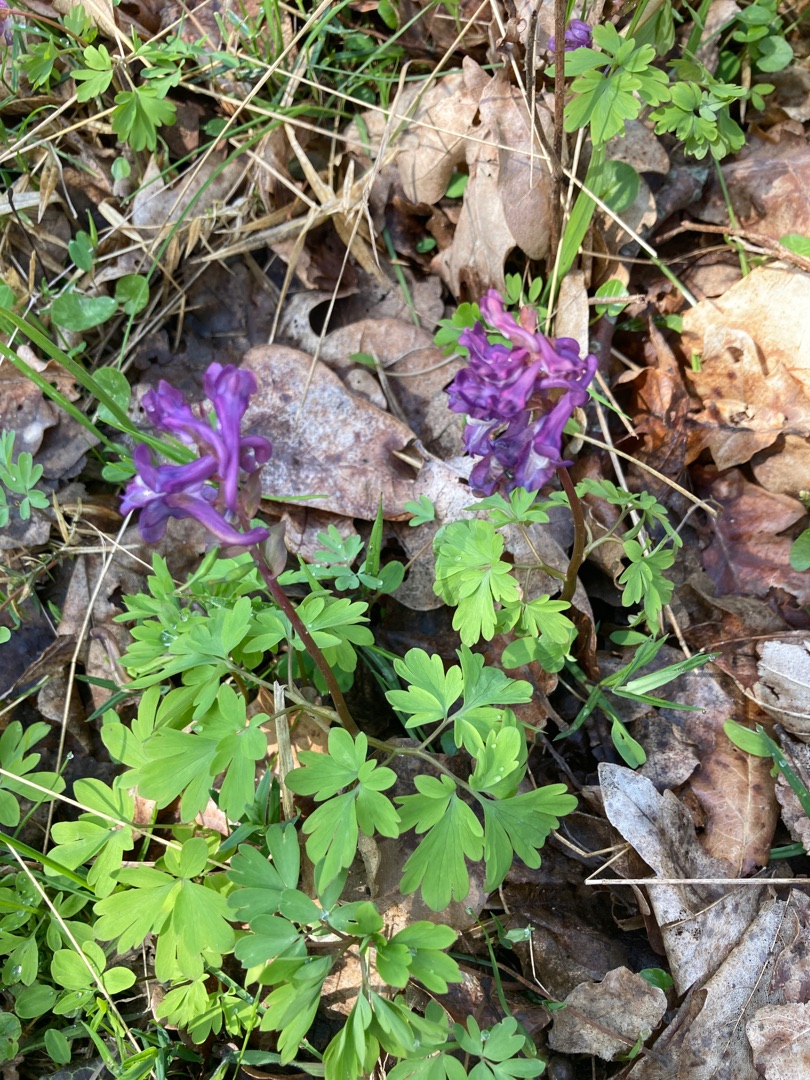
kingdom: Plantae
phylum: Tracheophyta
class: Magnoliopsida
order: Ranunculales
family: Papaveraceae
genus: Corydalis
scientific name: Corydalis cava
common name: Hulrodet lærkespore
